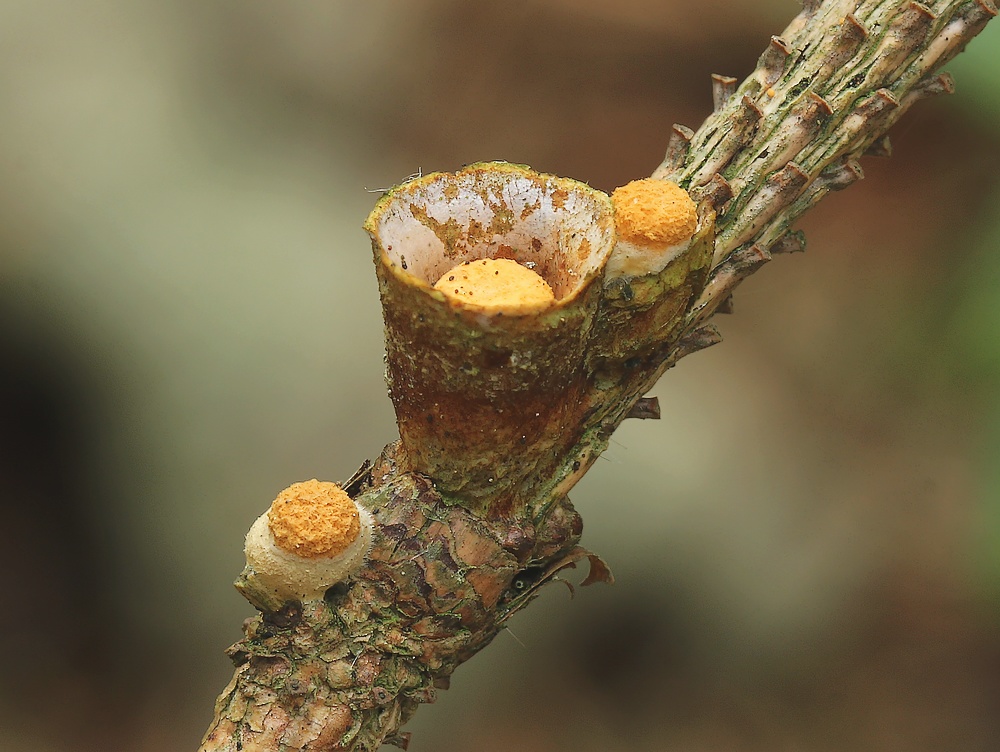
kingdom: Fungi
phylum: Basidiomycota
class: Agaricomycetes
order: Agaricales
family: Nidulariaceae
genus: Crucibulum
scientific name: Crucibulum crucibuliforme
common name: krukkesvamp
